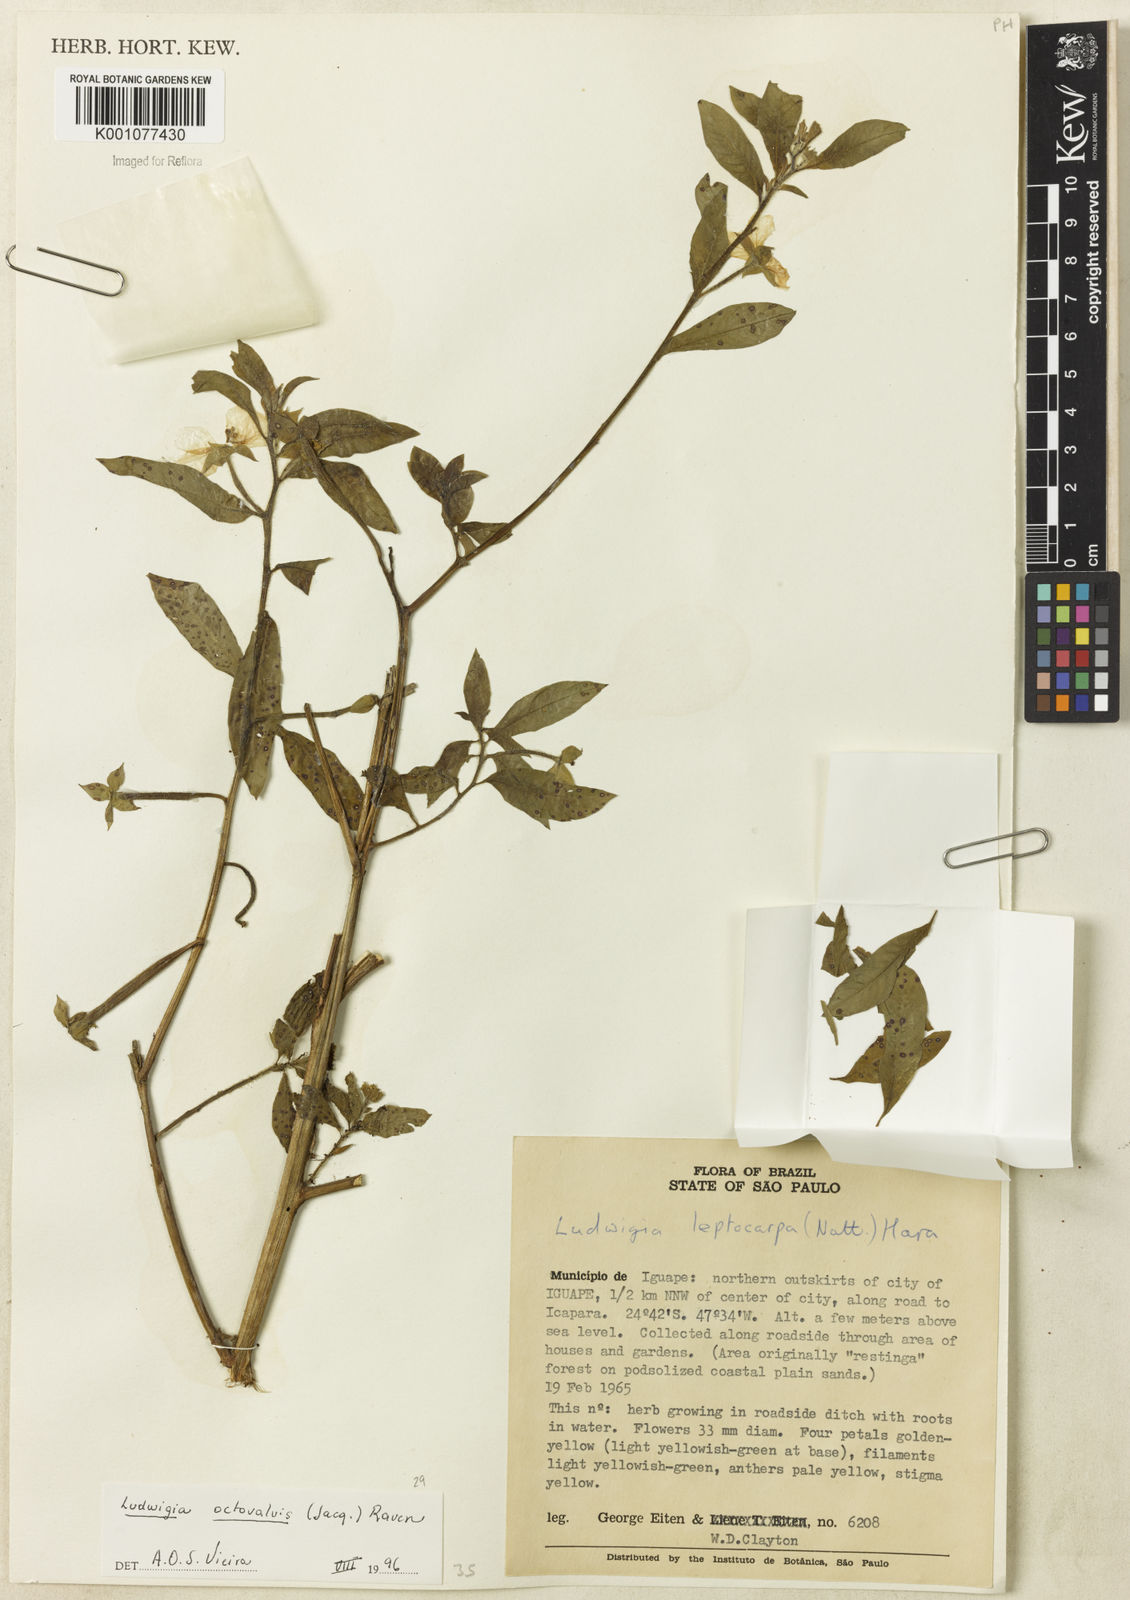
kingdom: Plantae
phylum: Tracheophyta
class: Magnoliopsida
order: Myrtales
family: Onagraceae
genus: Ludwigia
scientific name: Ludwigia octovalvis
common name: Water-primrose
